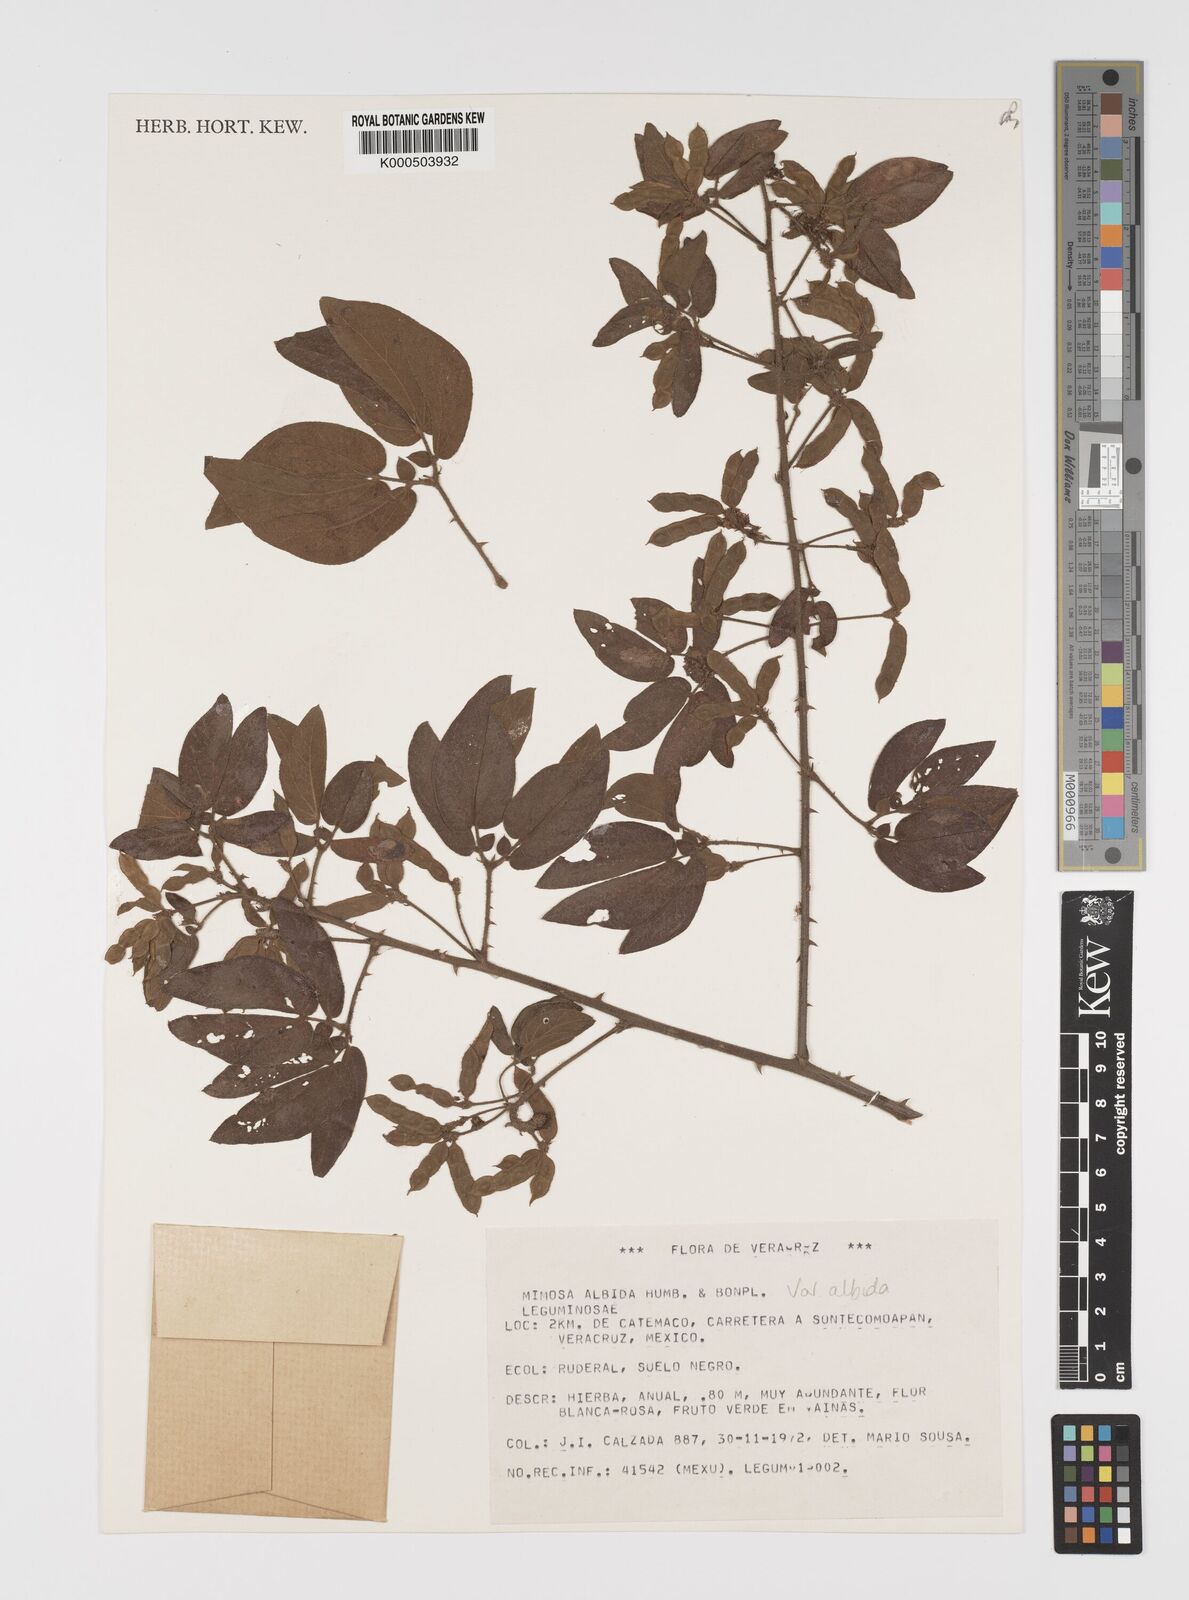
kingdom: Plantae
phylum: Tracheophyta
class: Magnoliopsida
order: Fabales
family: Fabaceae
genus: Mimosa
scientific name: Mimosa albida
